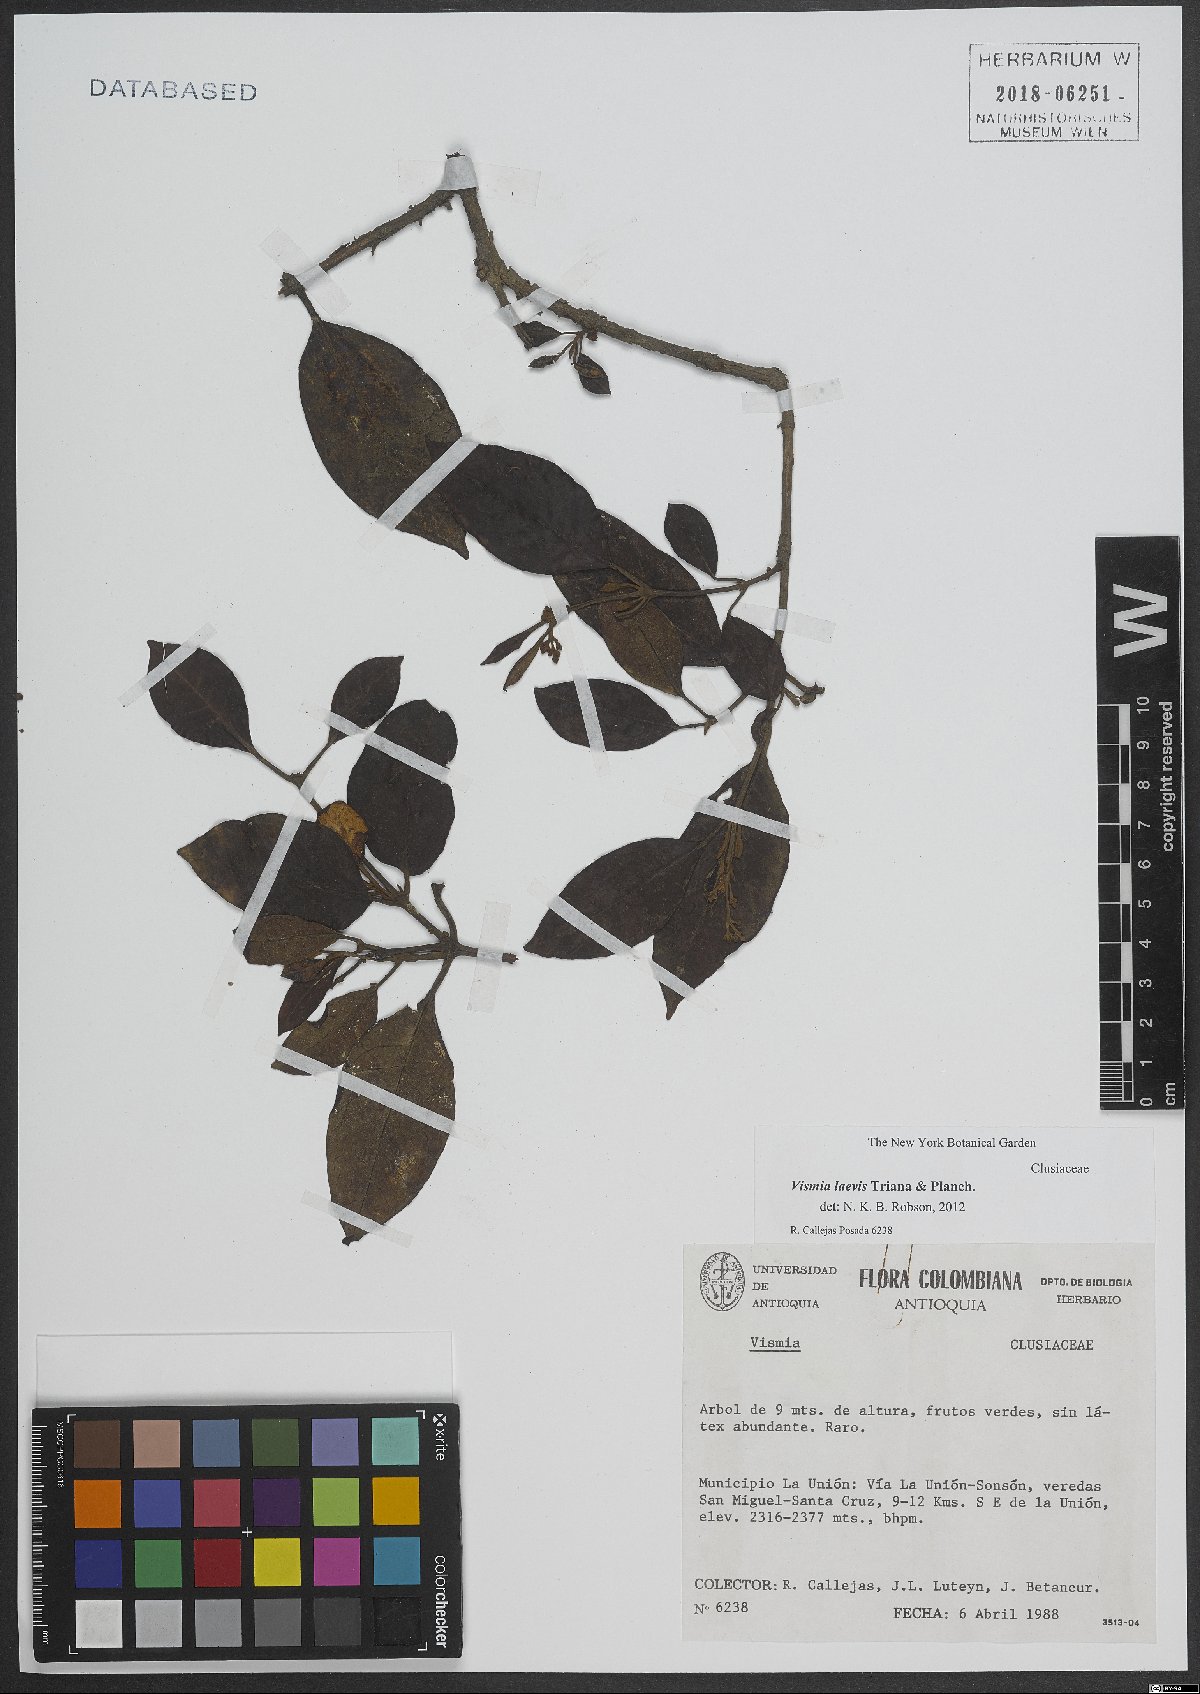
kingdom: Plantae
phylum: Tracheophyta
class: Magnoliopsida
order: Malpighiales
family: Hypericaceae
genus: Vismia
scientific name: Vismia laevis
